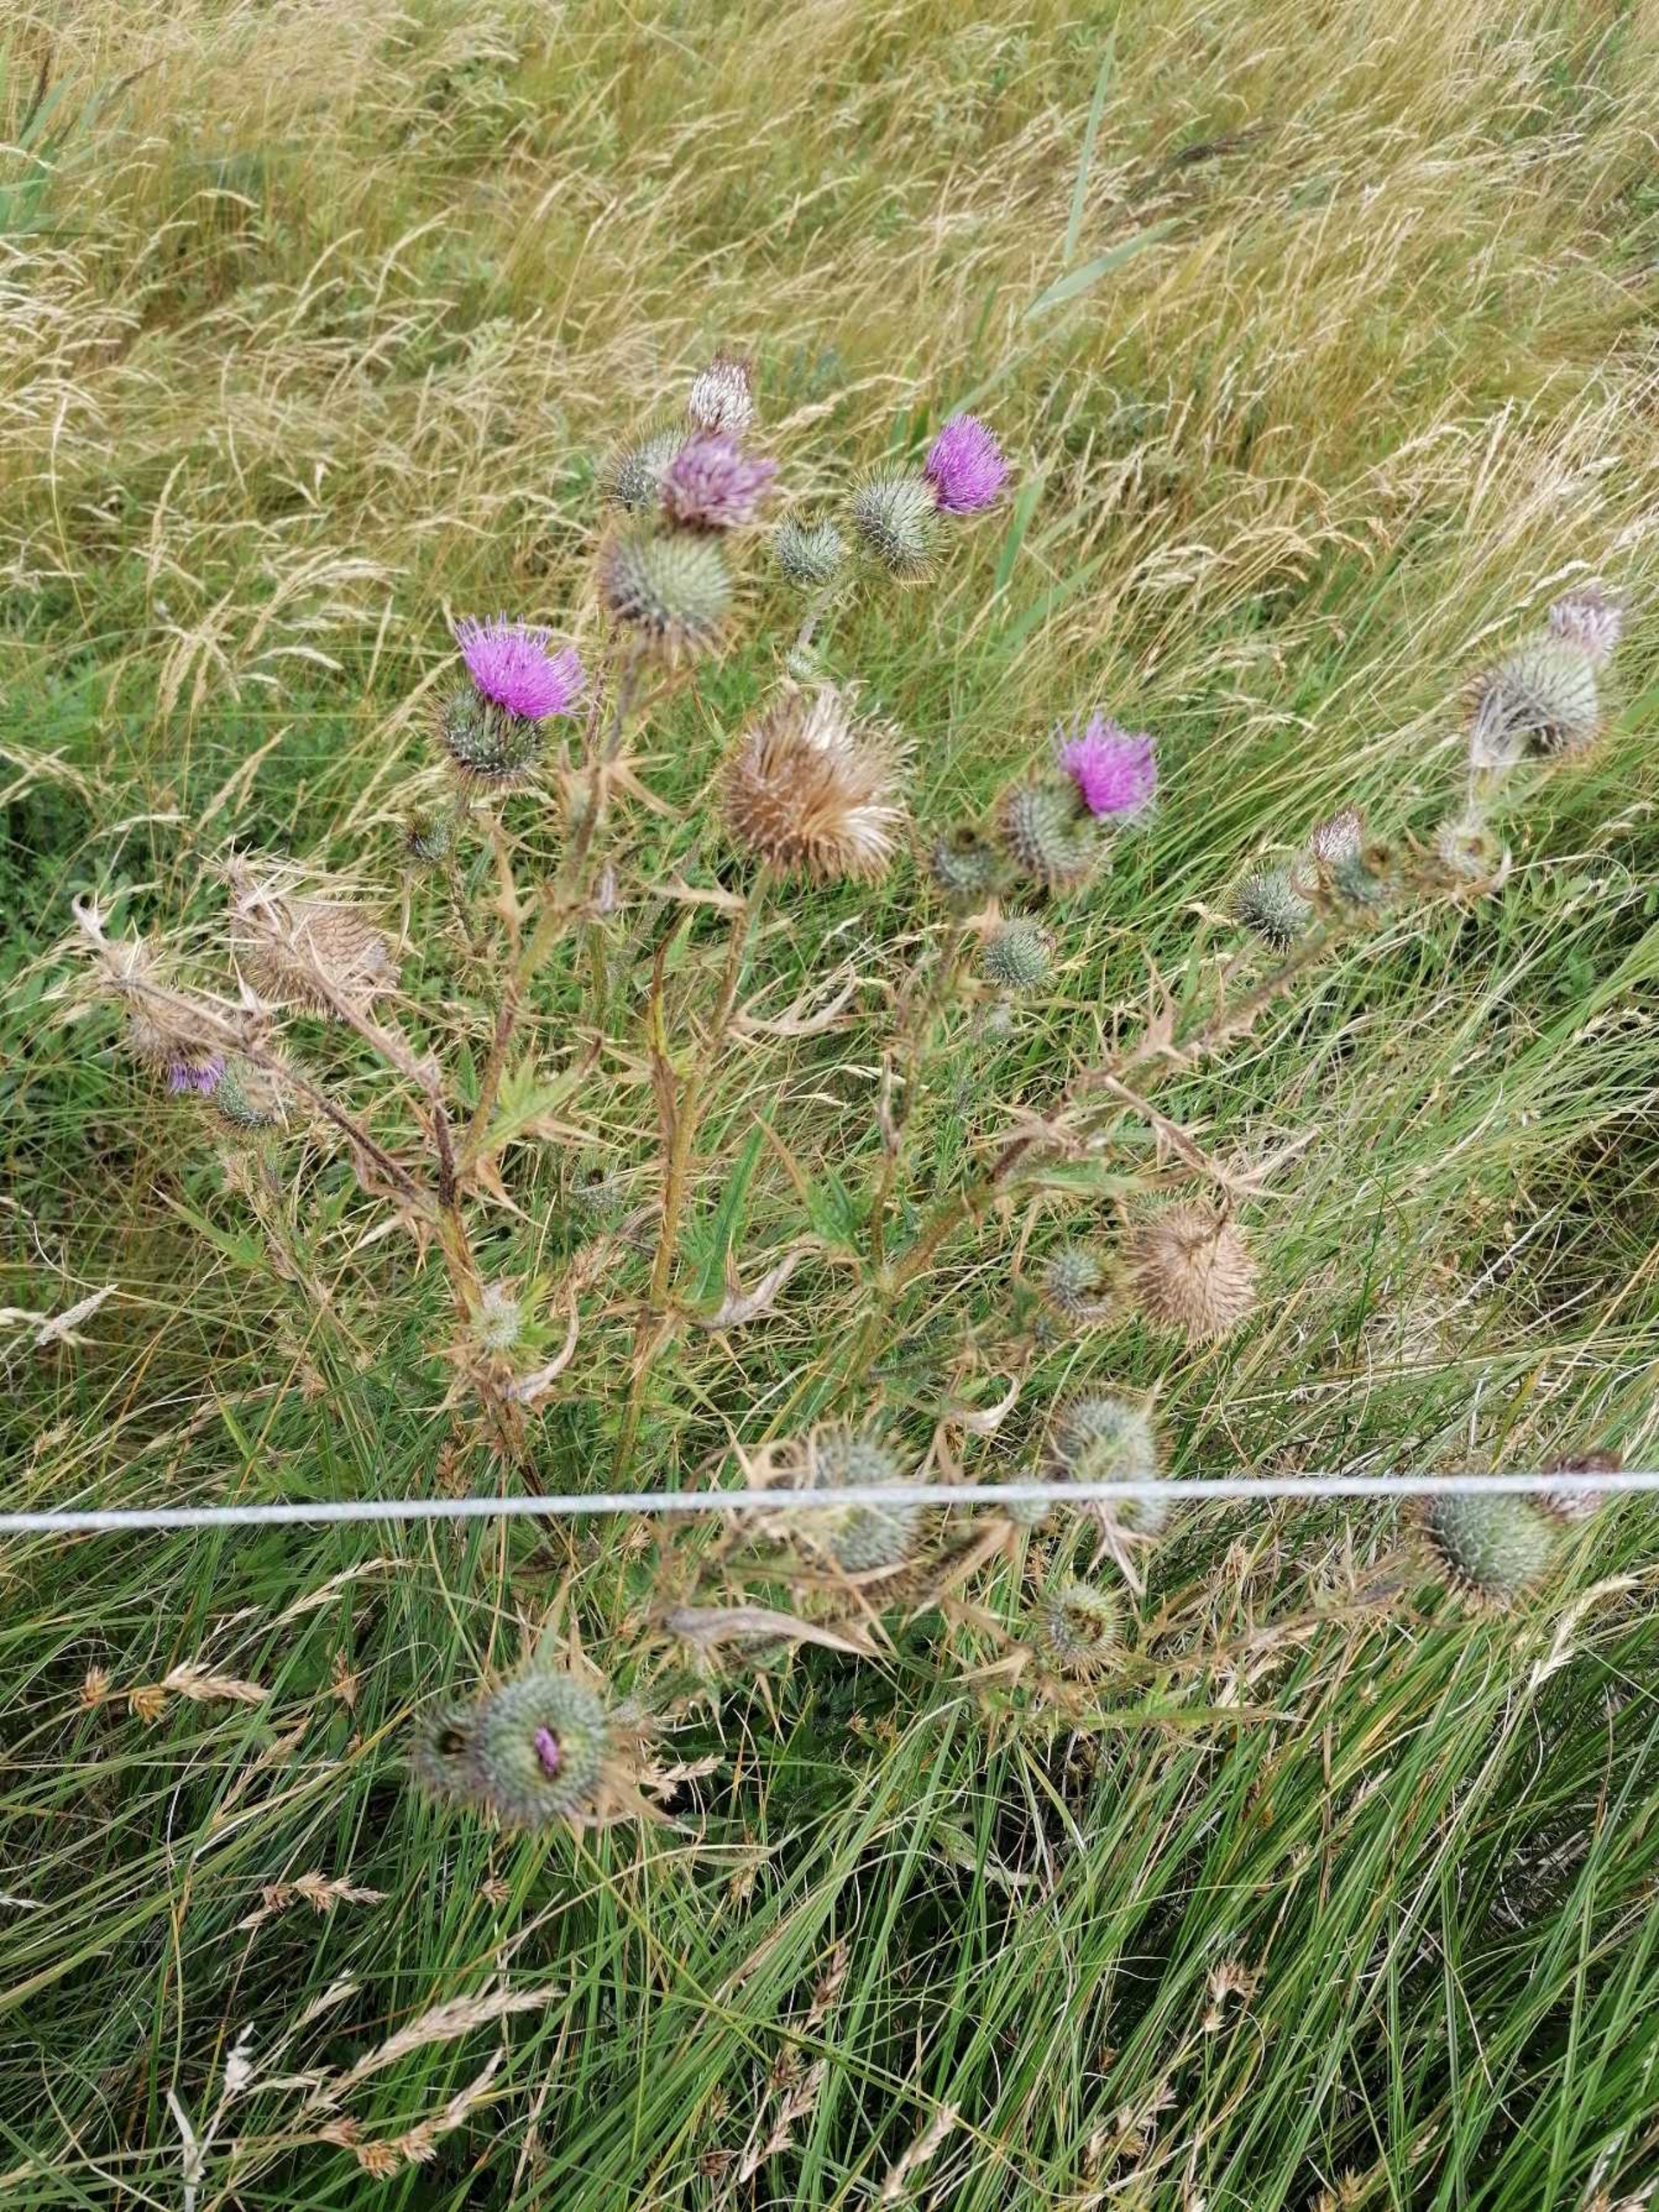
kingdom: Plantae
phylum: Tracheophyta
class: Magnoliopsida
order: Asterales
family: Asteraceae
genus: Cirsium
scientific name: Cirsium vulgare
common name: Horse-tidsel
